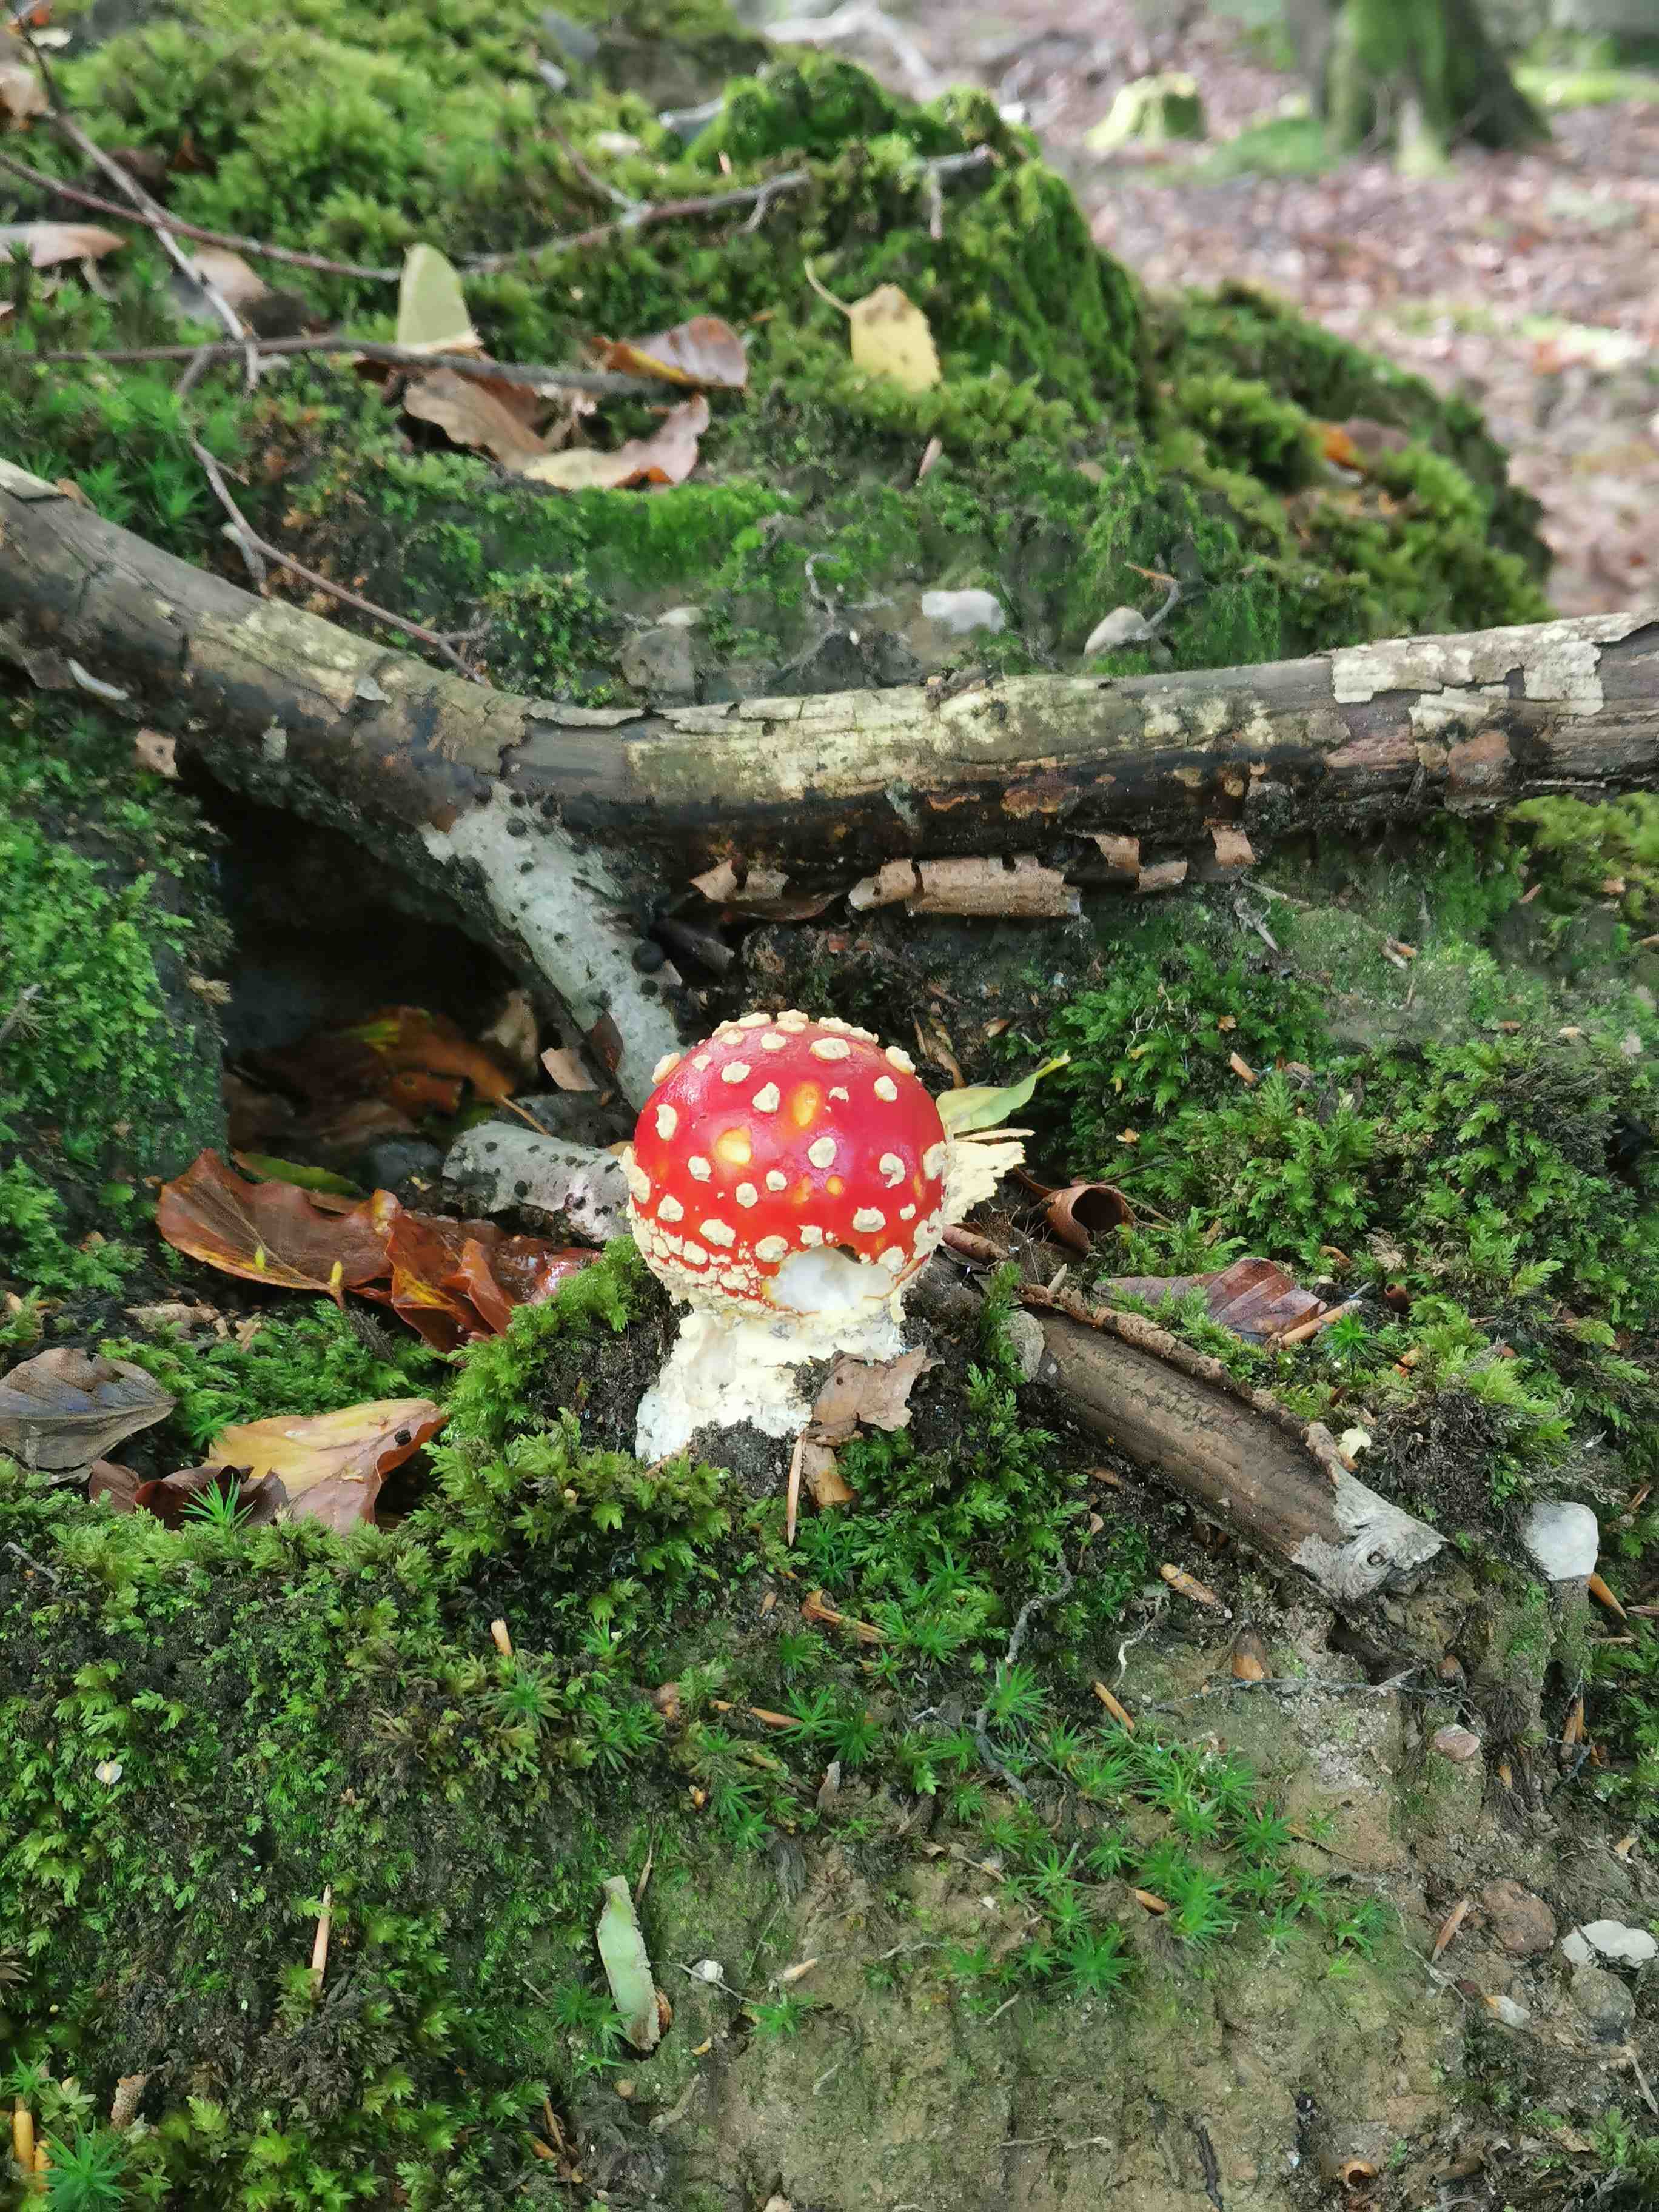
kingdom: Fungi
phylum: Basidiomycota
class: Agaricomycetes
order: Agaricales
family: Amanitaceae
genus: Amanita
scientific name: Amanita muscaria
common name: rød fluesvamp
